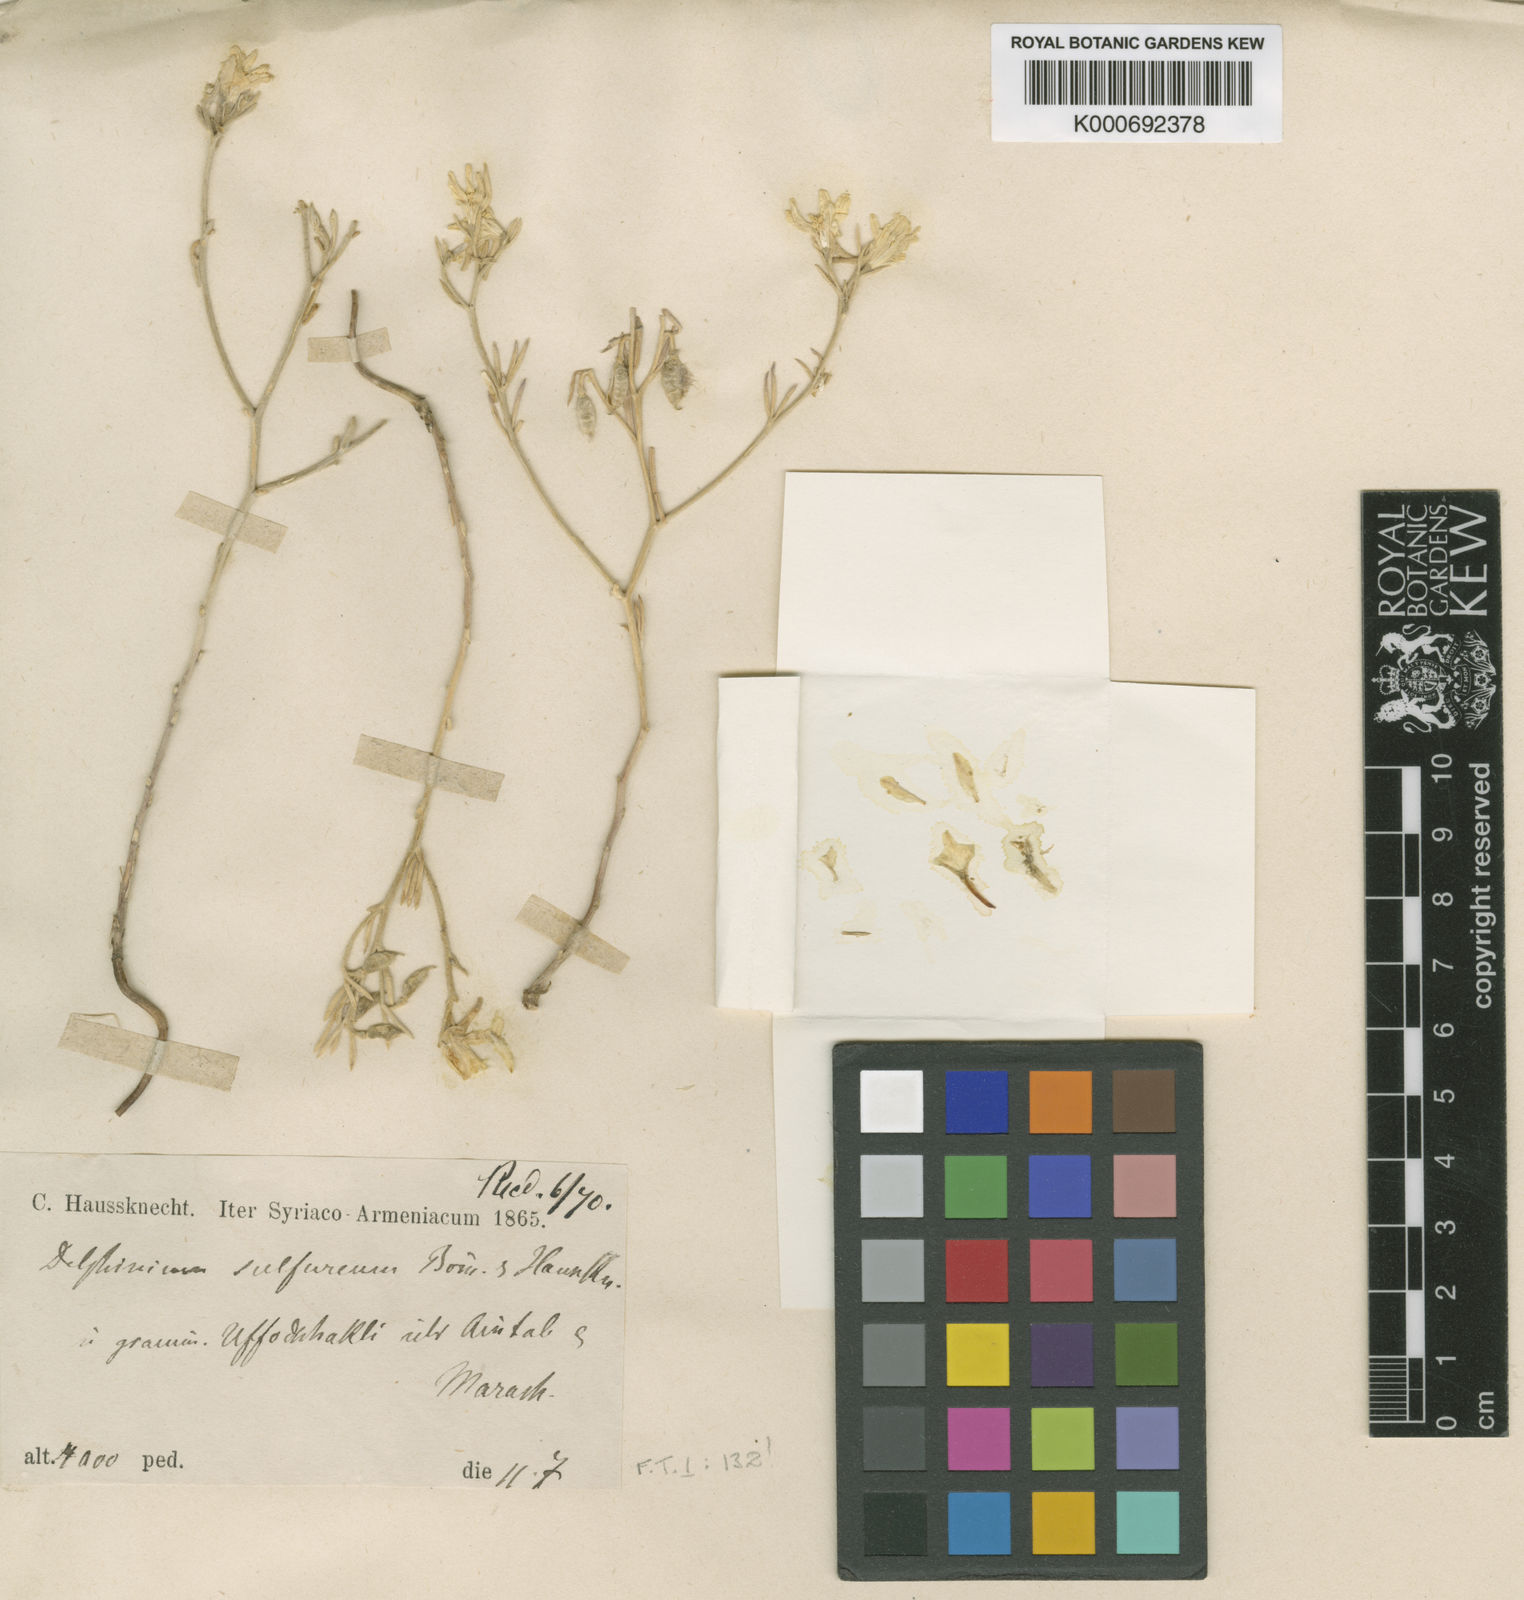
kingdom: Plantae
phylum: Tracheophyta
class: Magnoliopsida
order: Ranunculales
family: Ranunculaceae
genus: Delphinium
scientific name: Delphinium sulphureum
